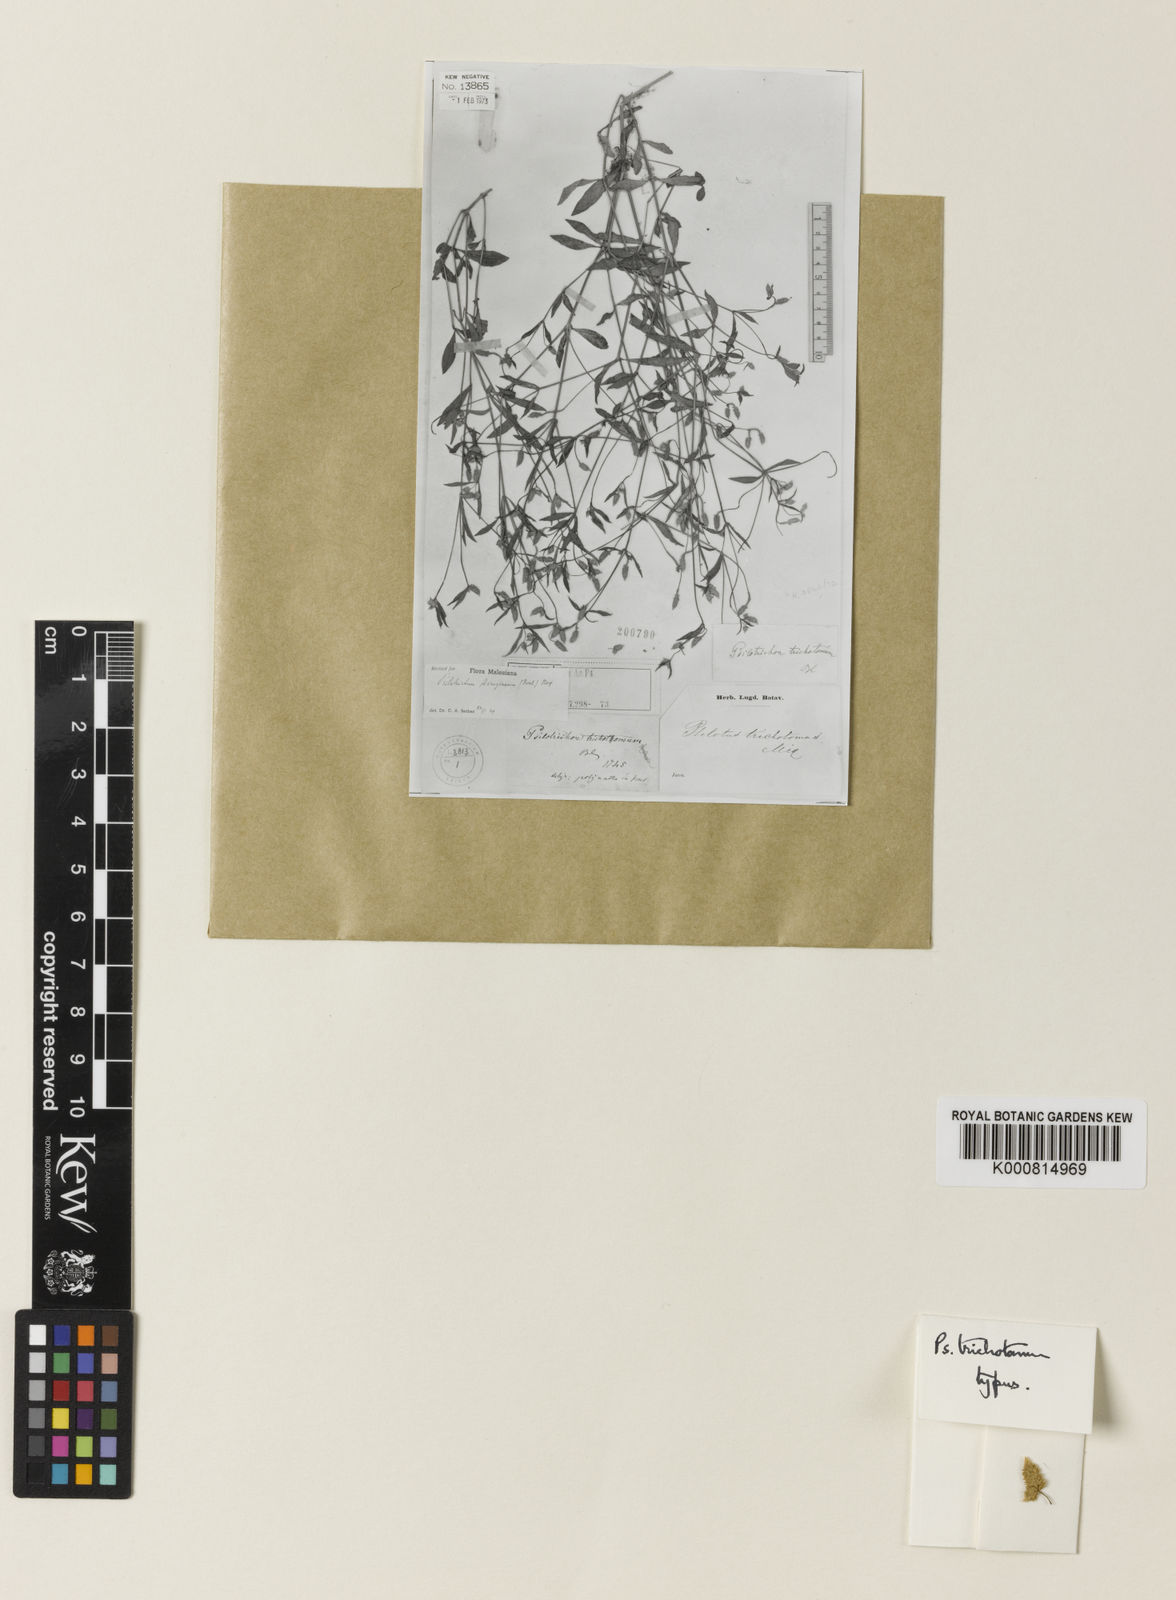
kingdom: Plantae
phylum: Tracheophyta
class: Magnoliopsida
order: Caryophyllales
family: Amaranthaceae
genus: Psilotrichum
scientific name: Psilotrichum
